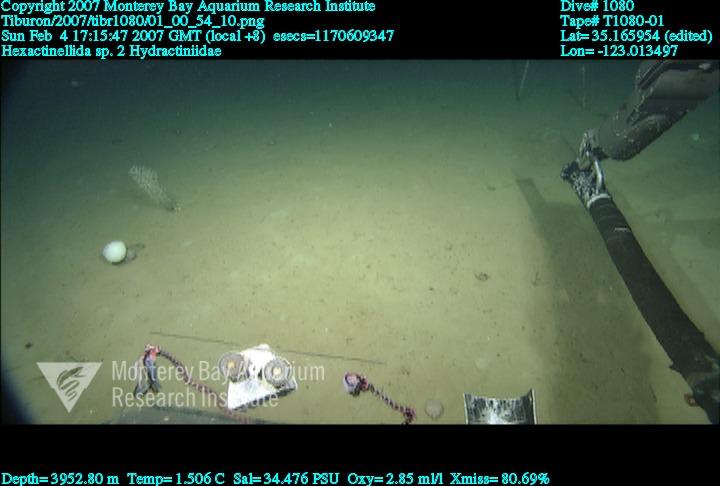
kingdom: Animalia
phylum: Porifera
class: Hexactinellida
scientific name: Hexactinellida
